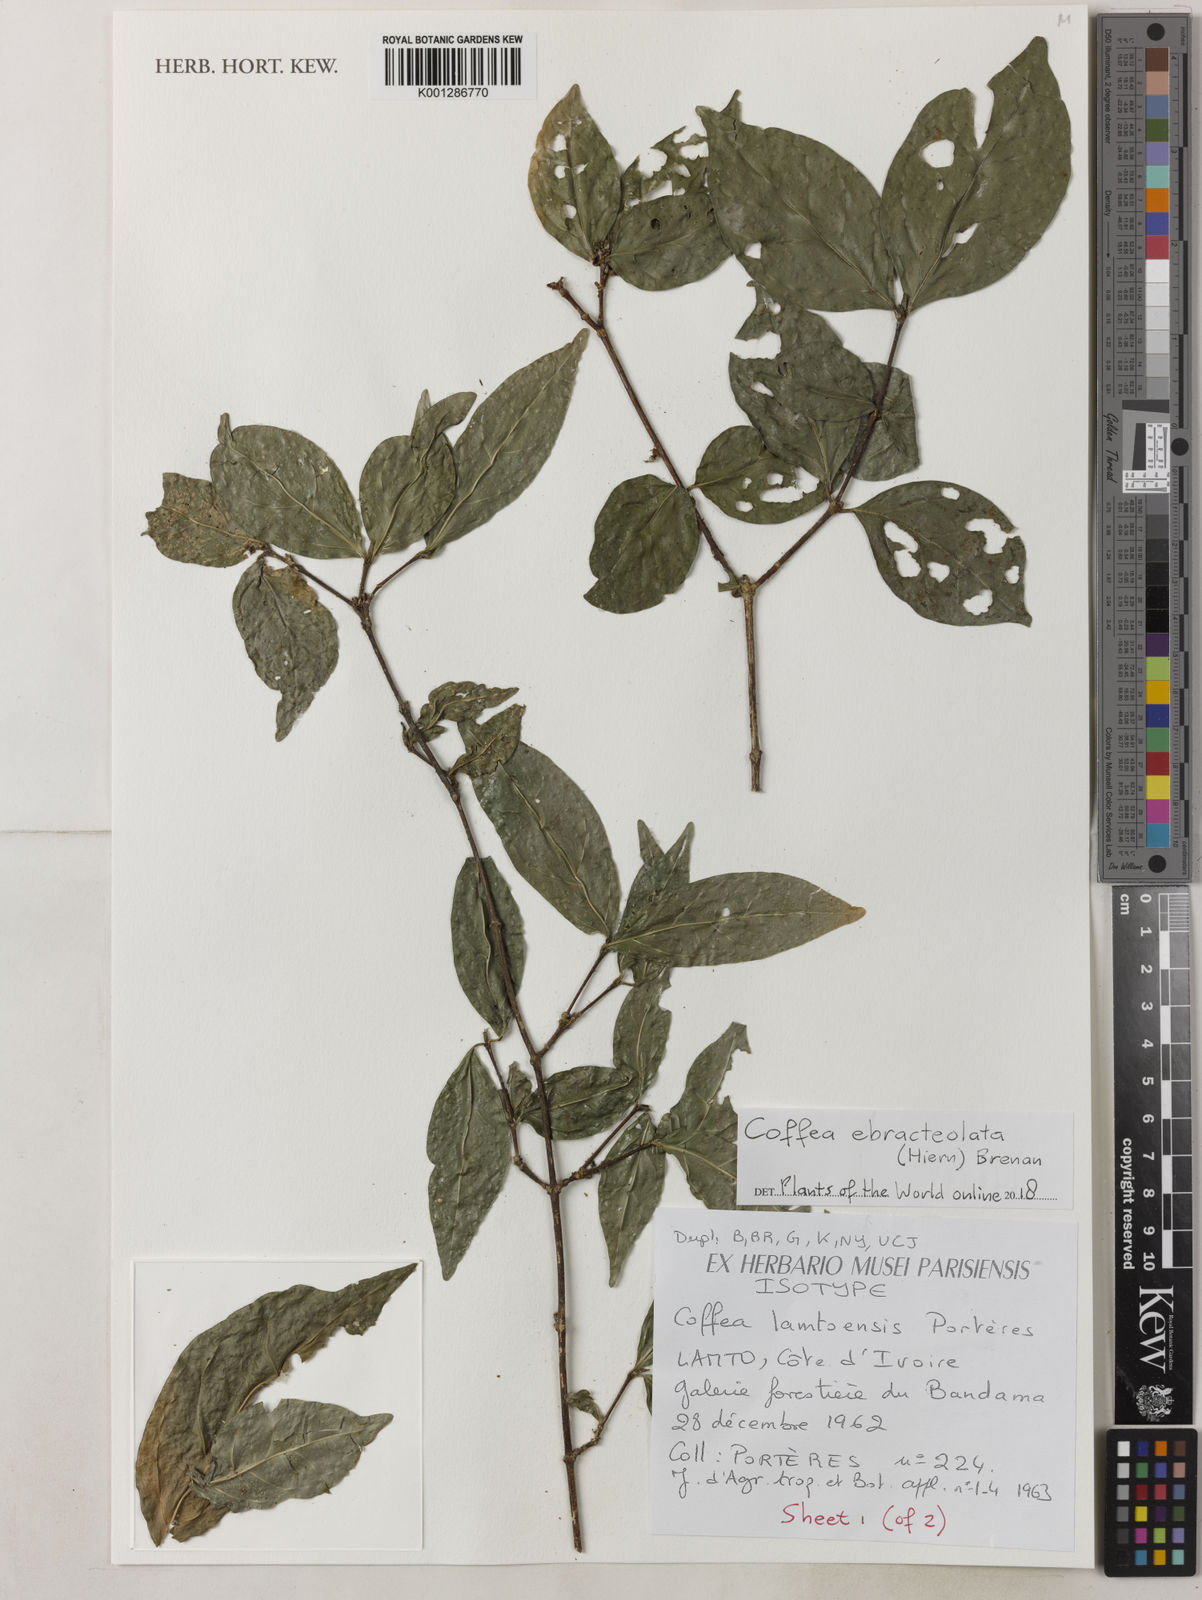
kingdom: Plantae
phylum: Tracheophyta
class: Magnoliopsida
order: Gentianales
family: Rubiaceae
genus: Coffea
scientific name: Coffea ebracteolata
